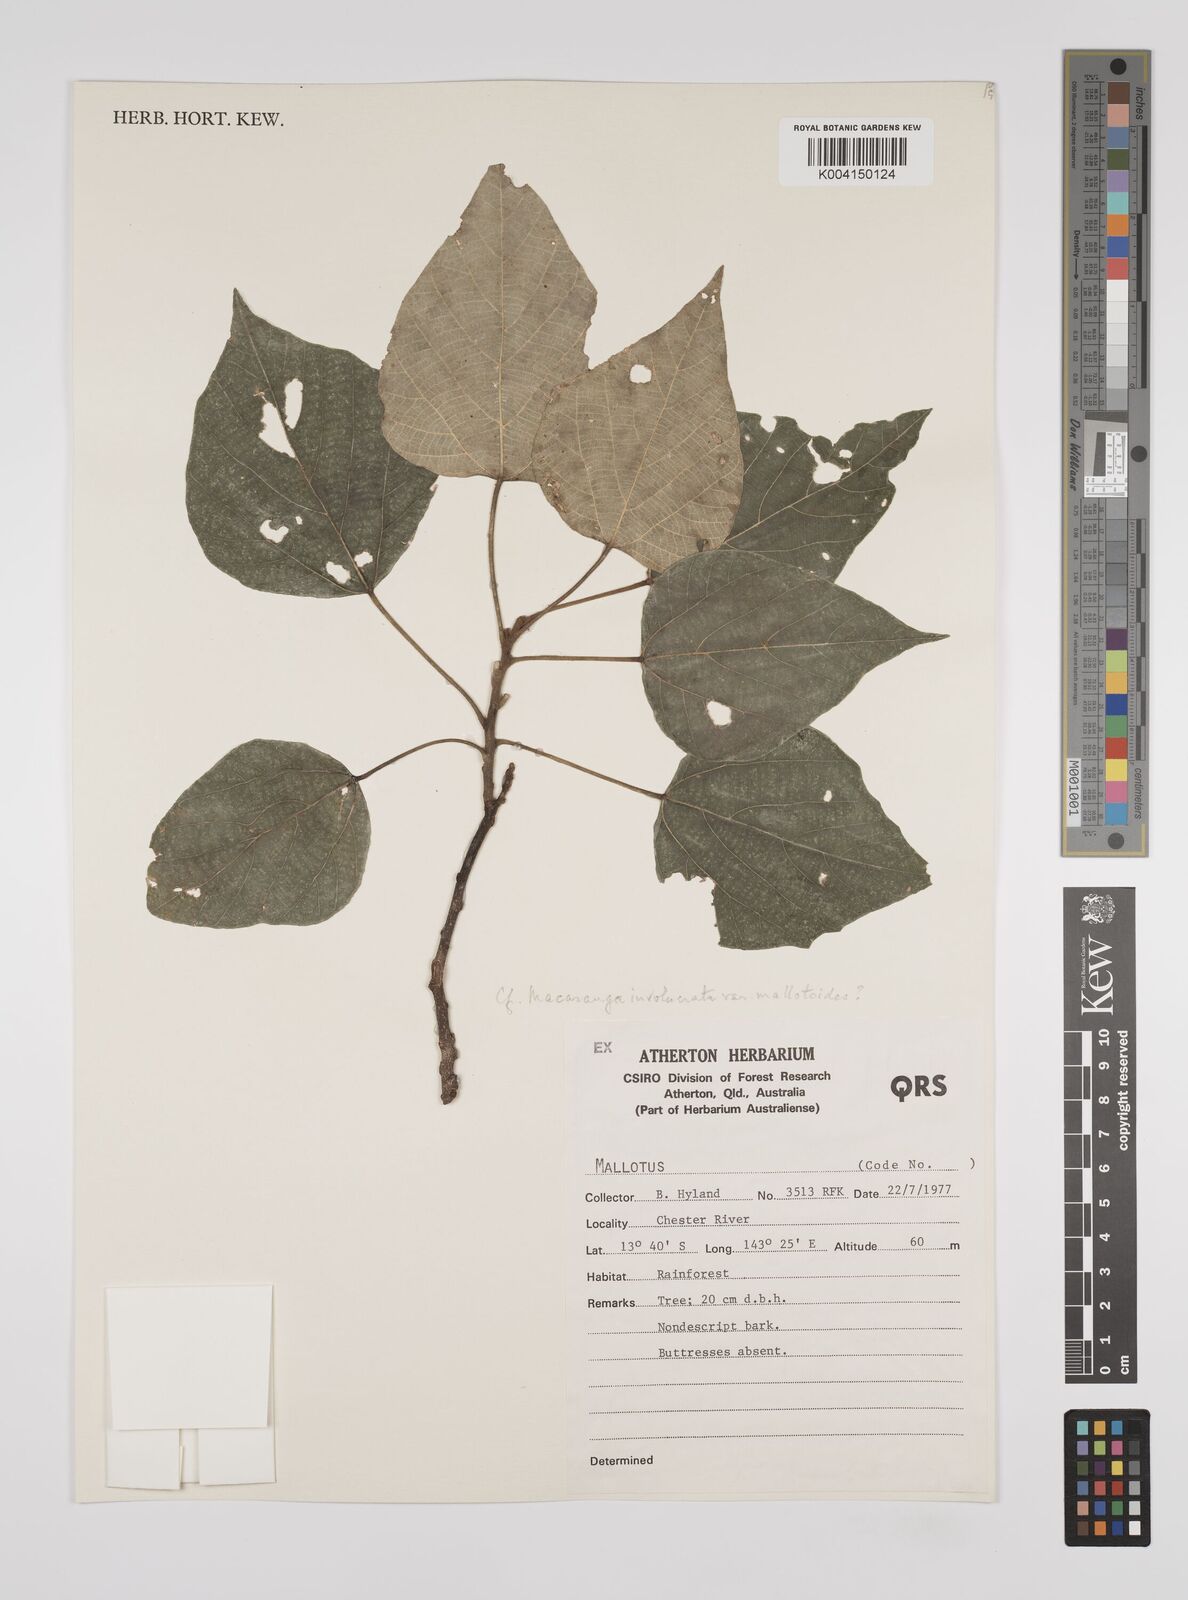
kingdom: Plantae
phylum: Tracheophyta
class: Magnoliopsida
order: Malpighiales
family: Euphorbiaceae
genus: Macaranga
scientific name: Macaranga involucrata
